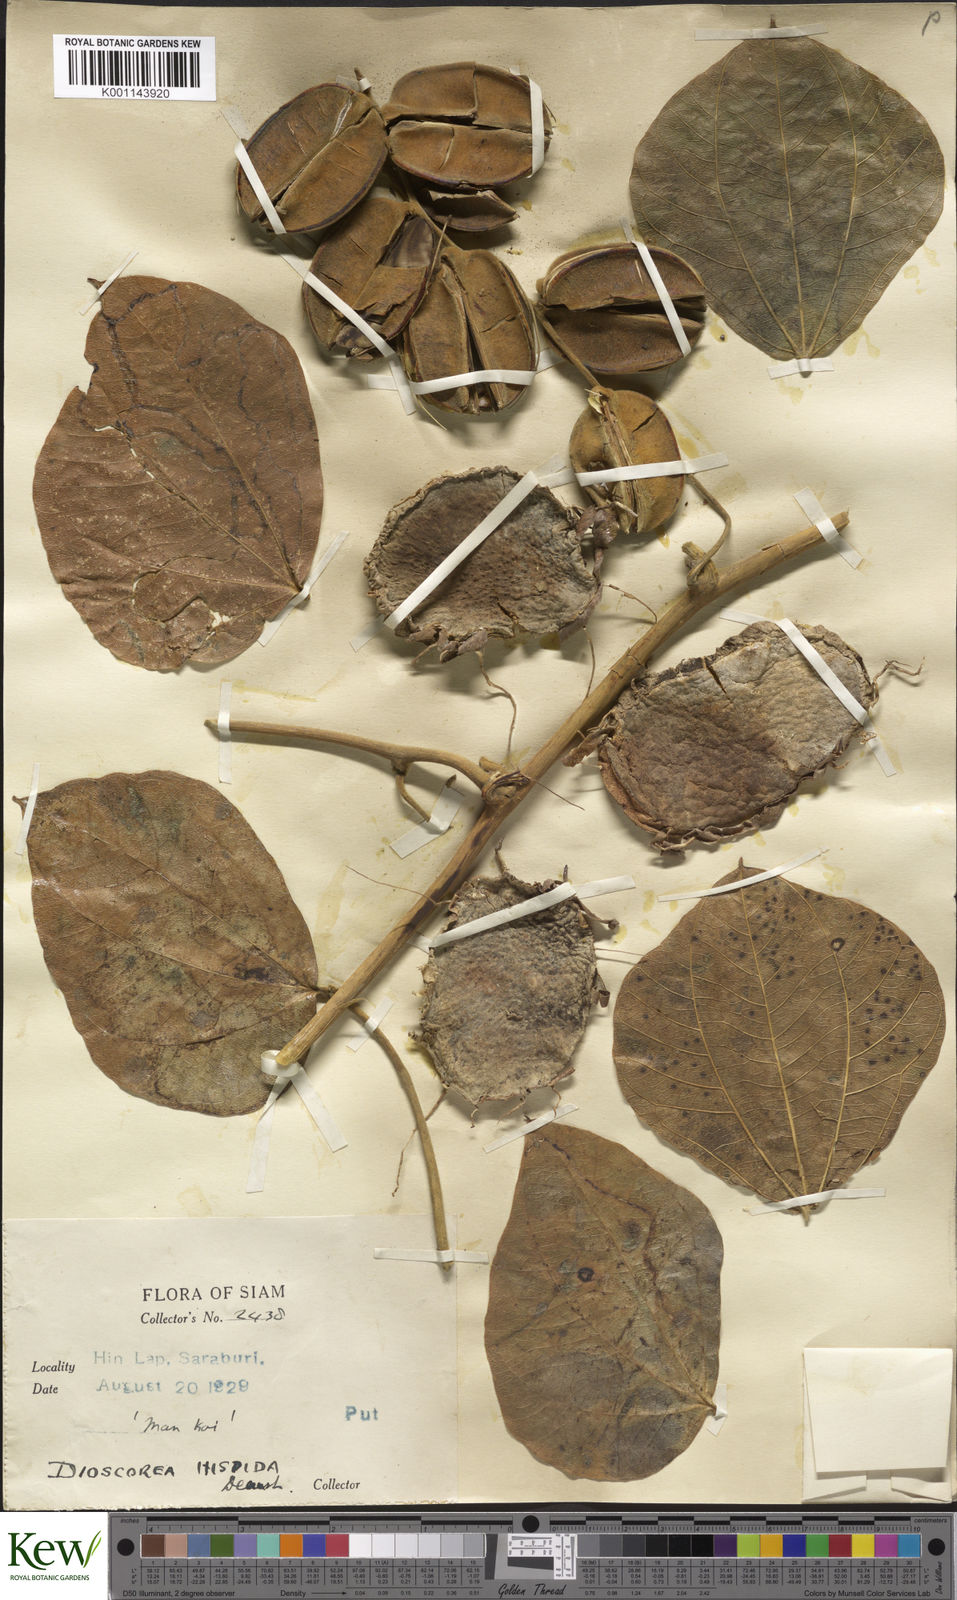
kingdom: Plantae
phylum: Tracheophyta
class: Liliopsida
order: Dioscoreales
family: Dioscoreaceae
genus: Dioscorea
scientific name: Dioscorea hispida
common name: Asiatic bitter yam
